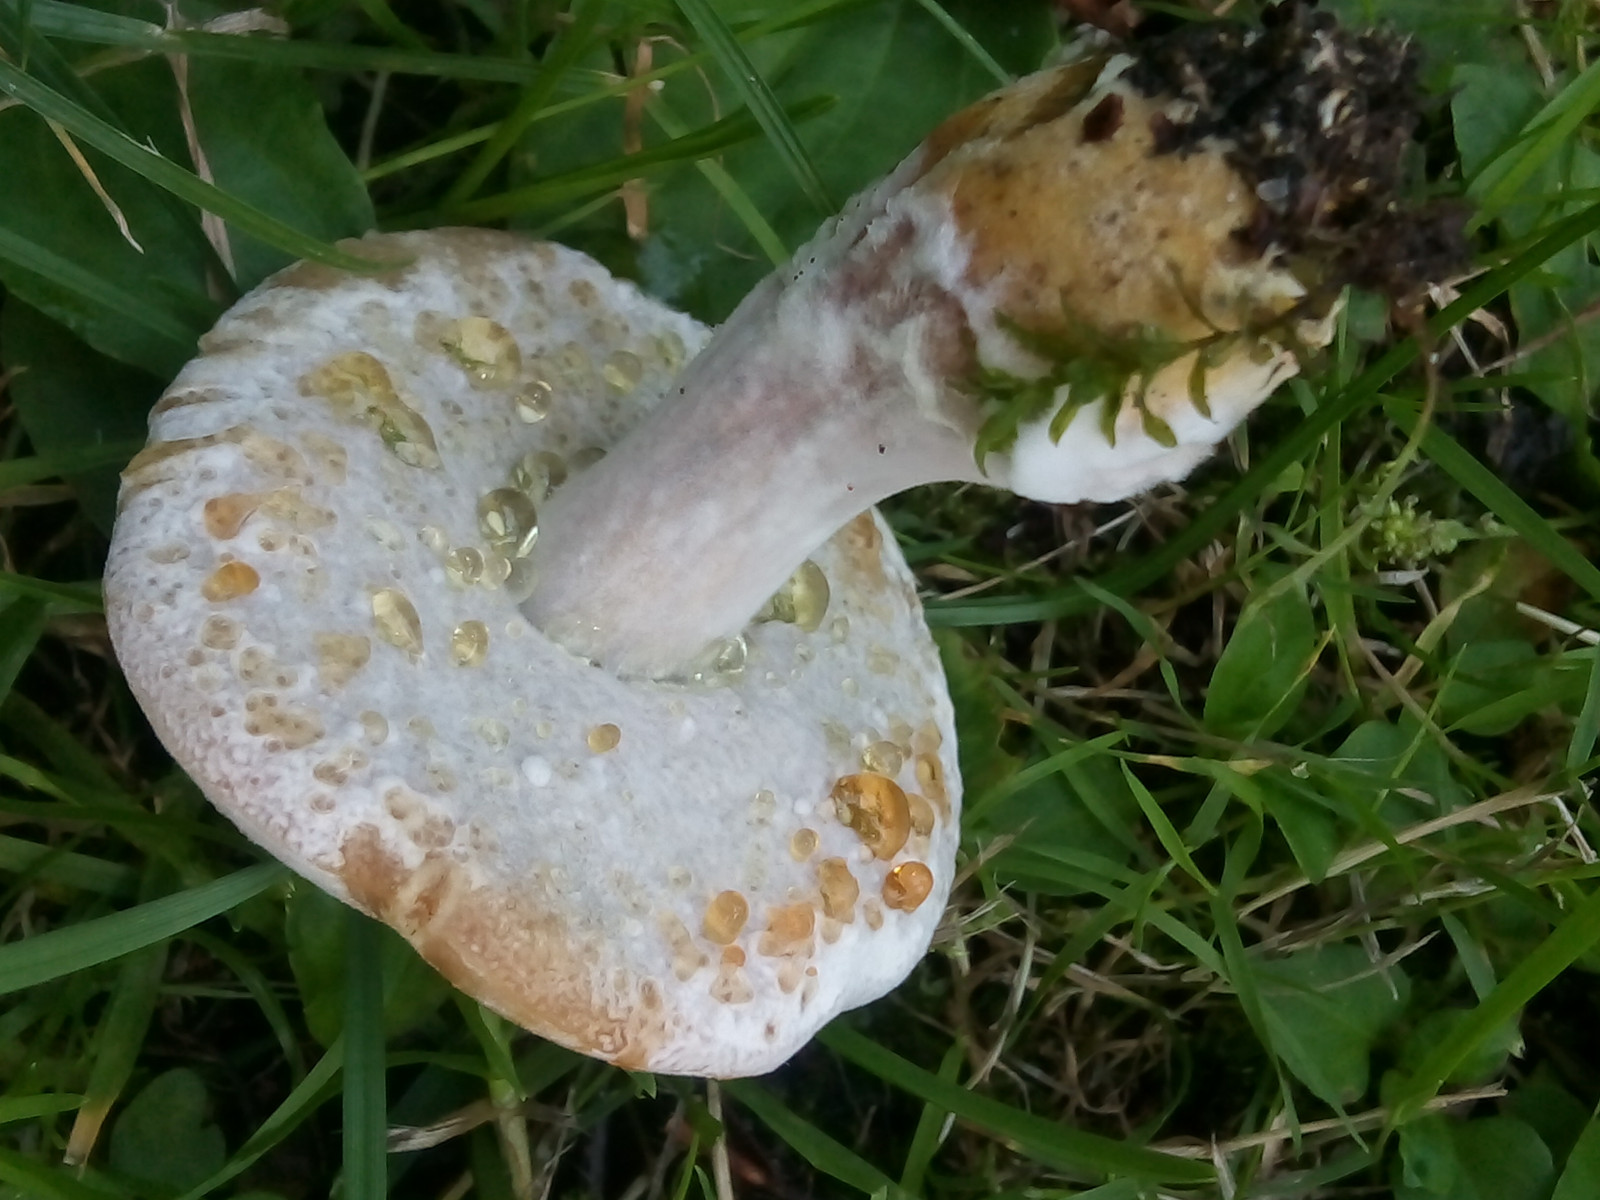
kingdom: Fungi
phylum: Ascomycota
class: Sordariomycetes
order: Hypocreales
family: Hypocreaceae
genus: Hypomyces
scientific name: Hypomyces microspermus
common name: dværgrørhat-snylteskorpe
